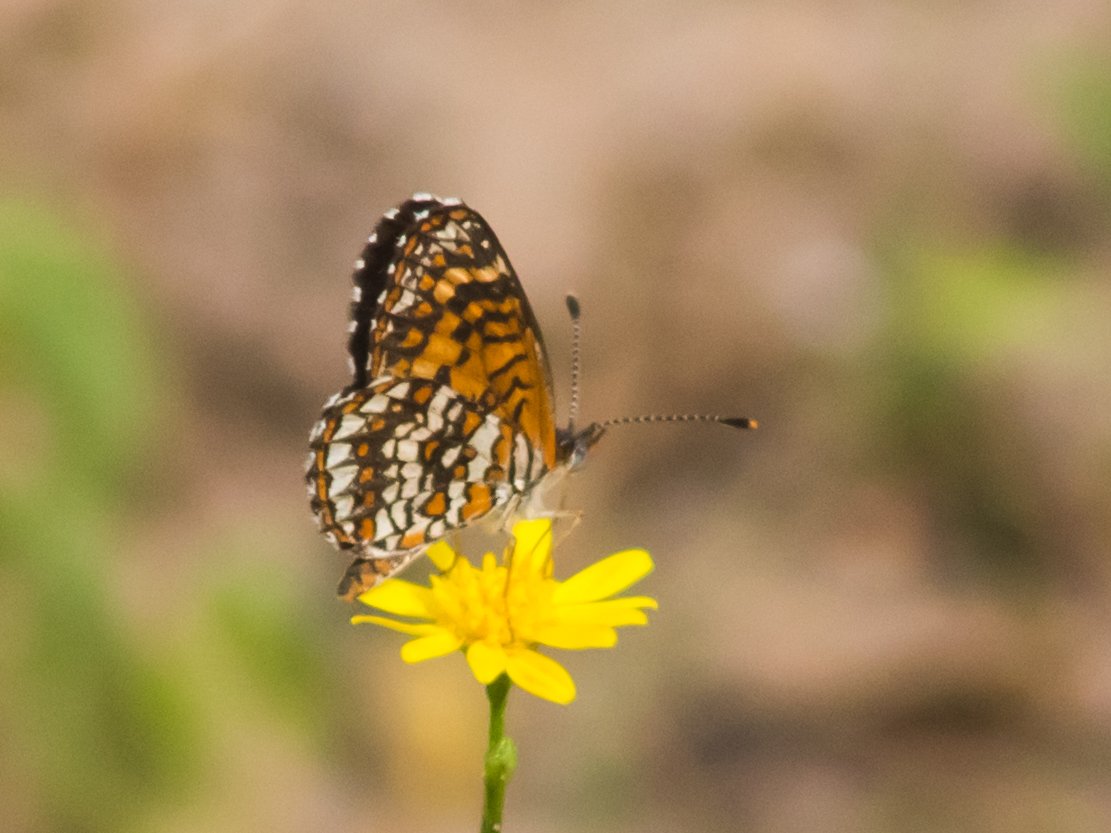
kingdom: Animalia
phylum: Arthropoda
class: Insecta
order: Lepidoptera
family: Nymphalidae
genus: Texola
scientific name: Texola elada
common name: Elada Checkerspot
